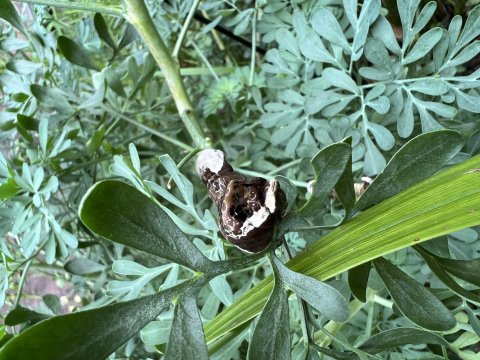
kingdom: Animalia
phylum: Arthropoda
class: Insecta
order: Lepidoptera
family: Papilionidae
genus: Papilio
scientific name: Papilio cresphontes
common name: Eastern Giant Swallowtail
